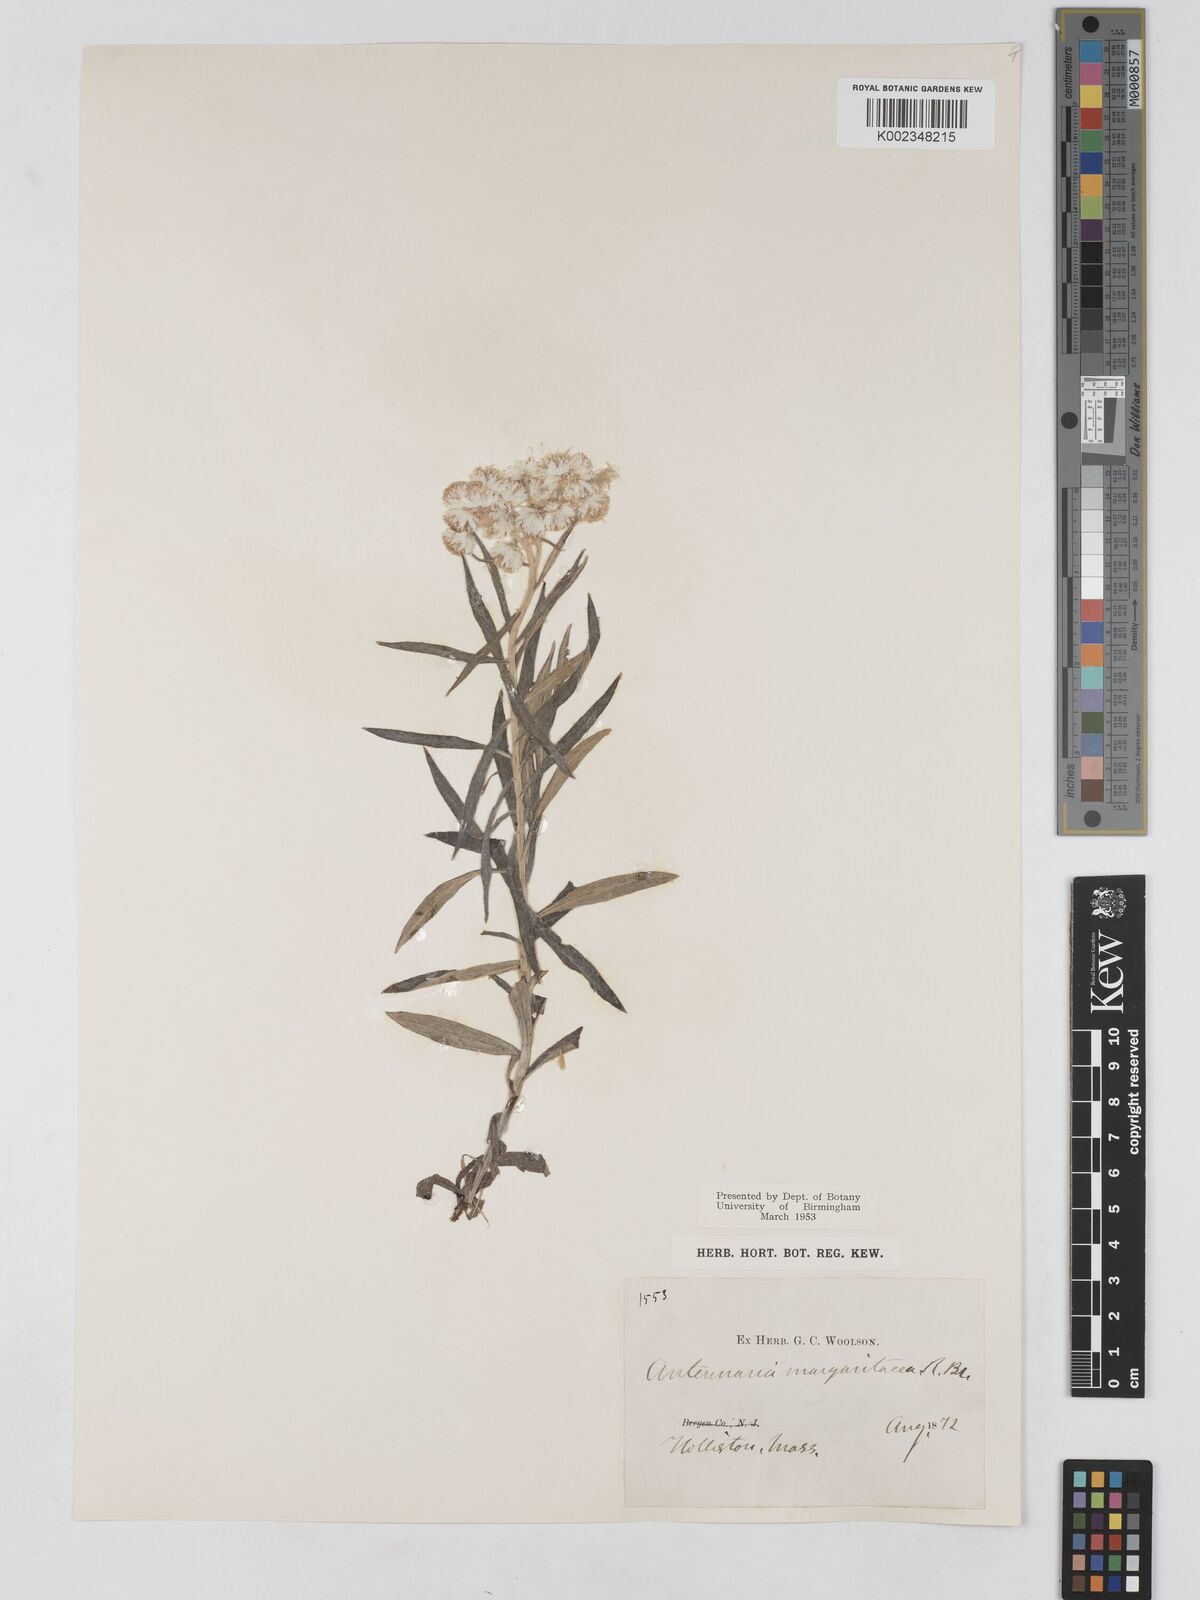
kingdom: Plantae
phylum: Tracheophyta
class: Magnoliopsida
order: Asterales
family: Asteraceae
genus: Anaphalis
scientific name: Anaphalis margaritacea
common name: Pearly everlasting
